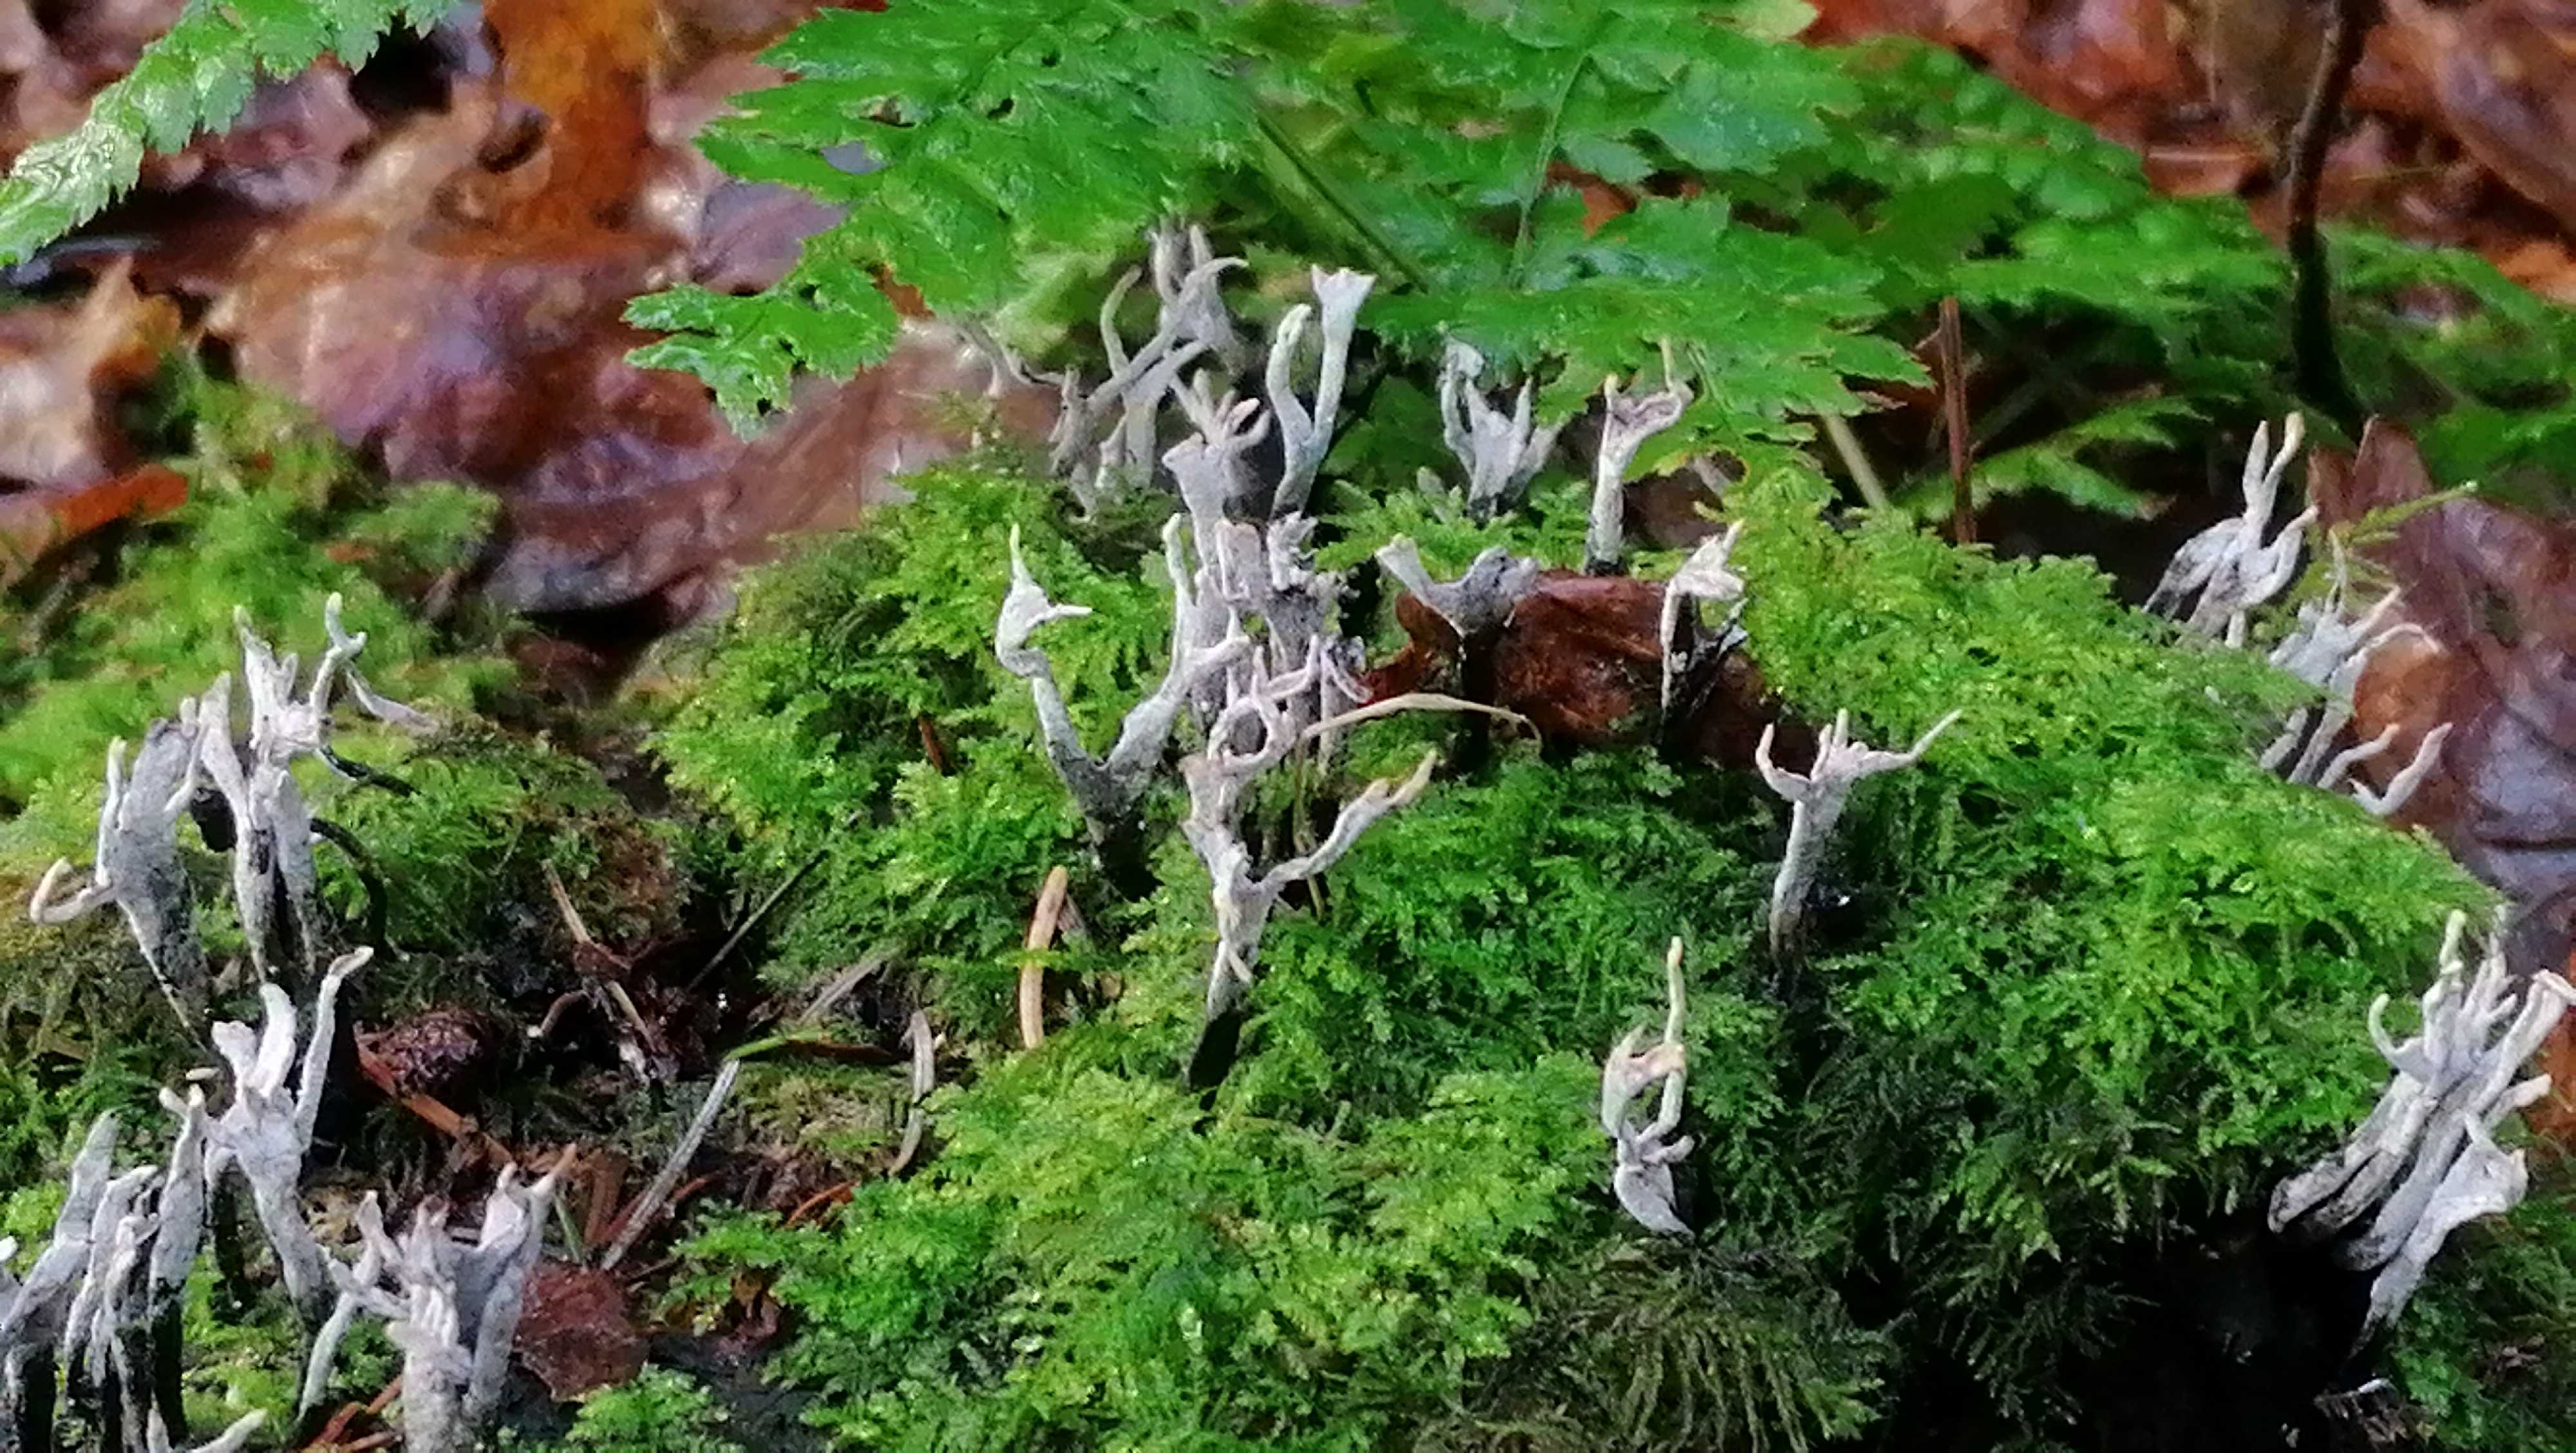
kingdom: Fungi
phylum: Ascomycota
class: Sordariomycetes
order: Xylariales
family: Xylariaceae
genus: Xylaria
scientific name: Xylaria hypoxylon
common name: grenet stødsvamp
